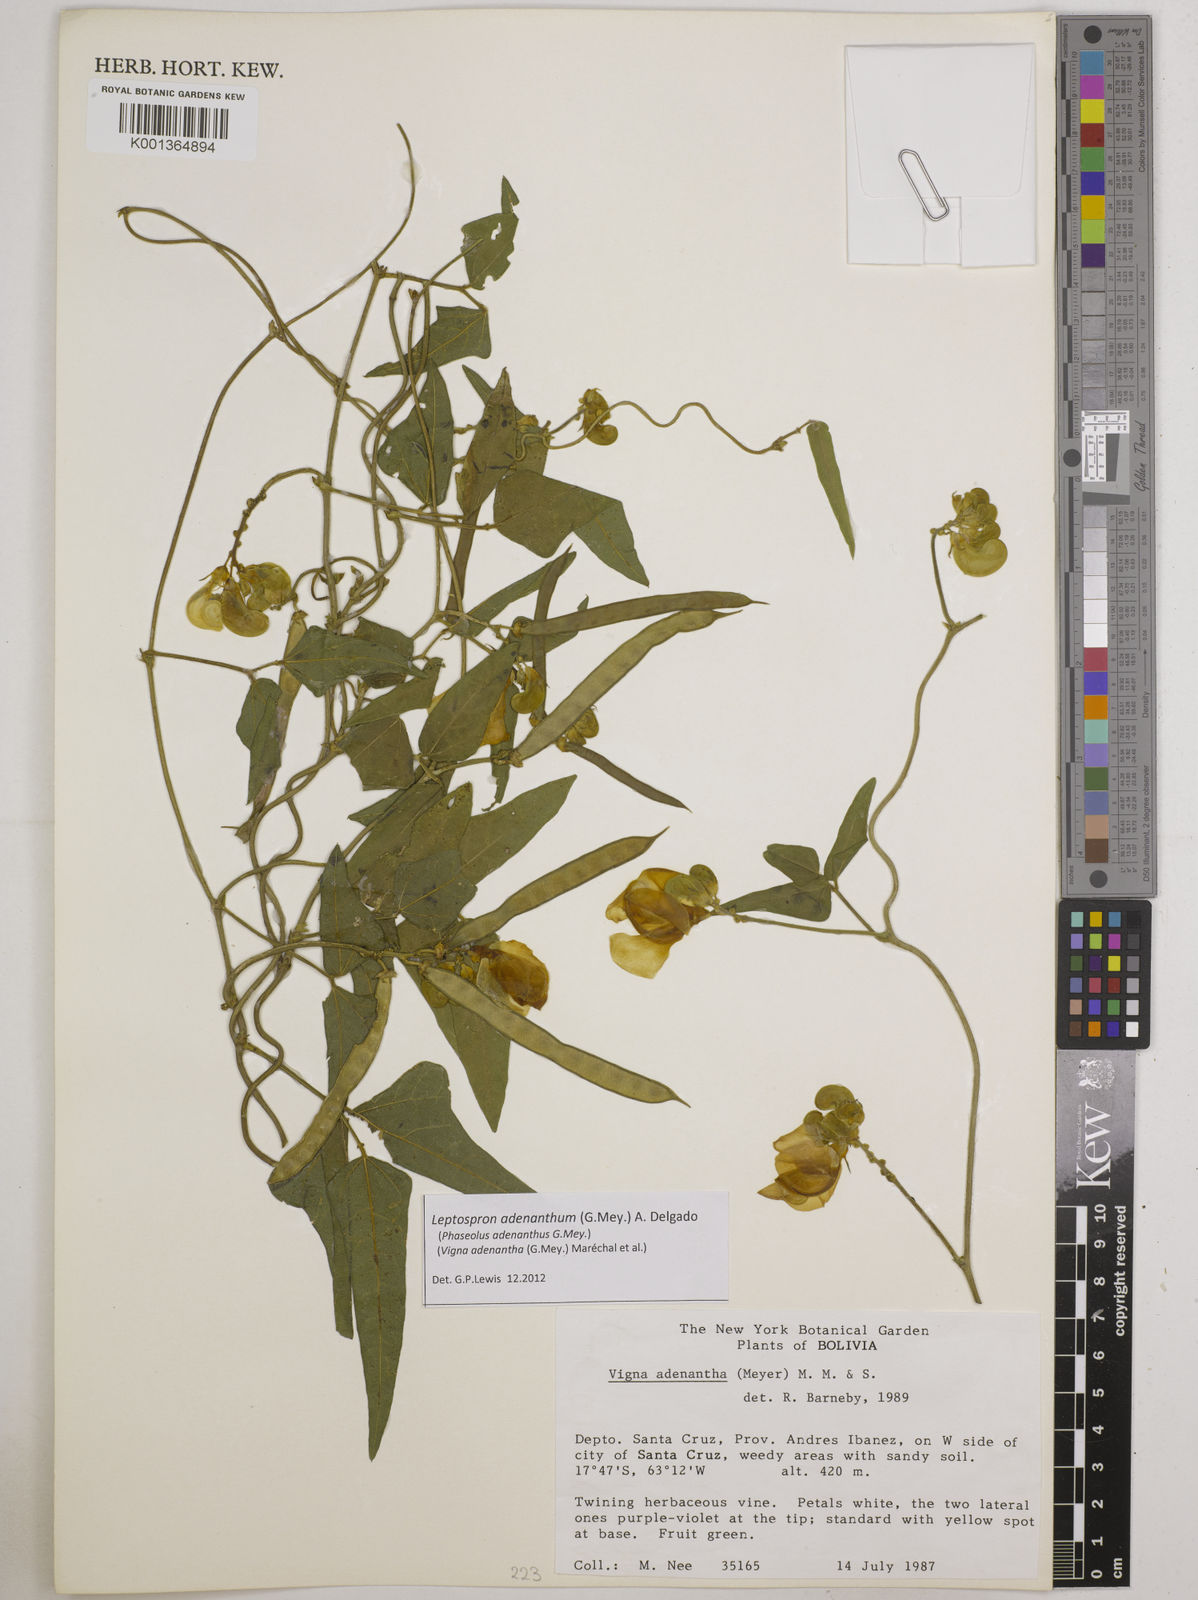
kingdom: Plantae
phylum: Tracheophyta
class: Magnoliopsida
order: Fabales
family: Fabaceae
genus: Leptospron
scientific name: Leptospron adenanthum
